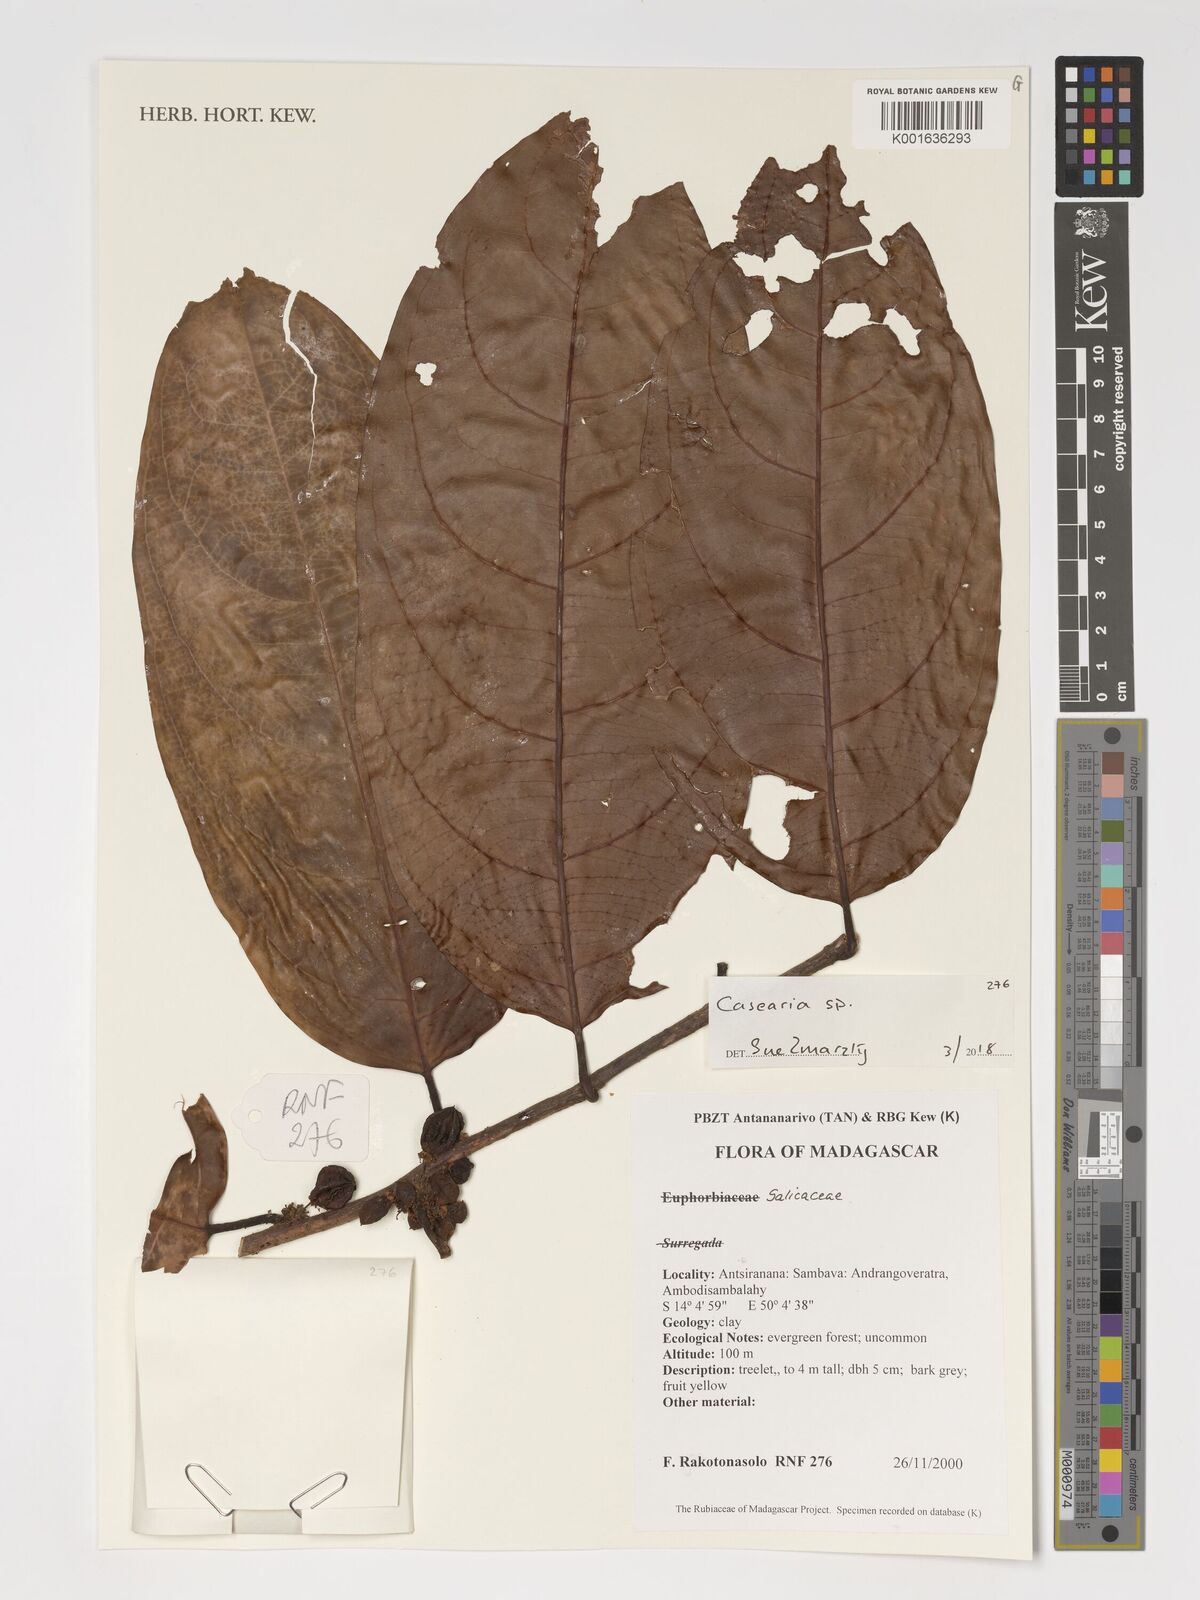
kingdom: Plantae
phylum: Tracheophyta
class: Magnoliopsida
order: Malpighiales
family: Salicaceae
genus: Casearia
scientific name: Casearia
